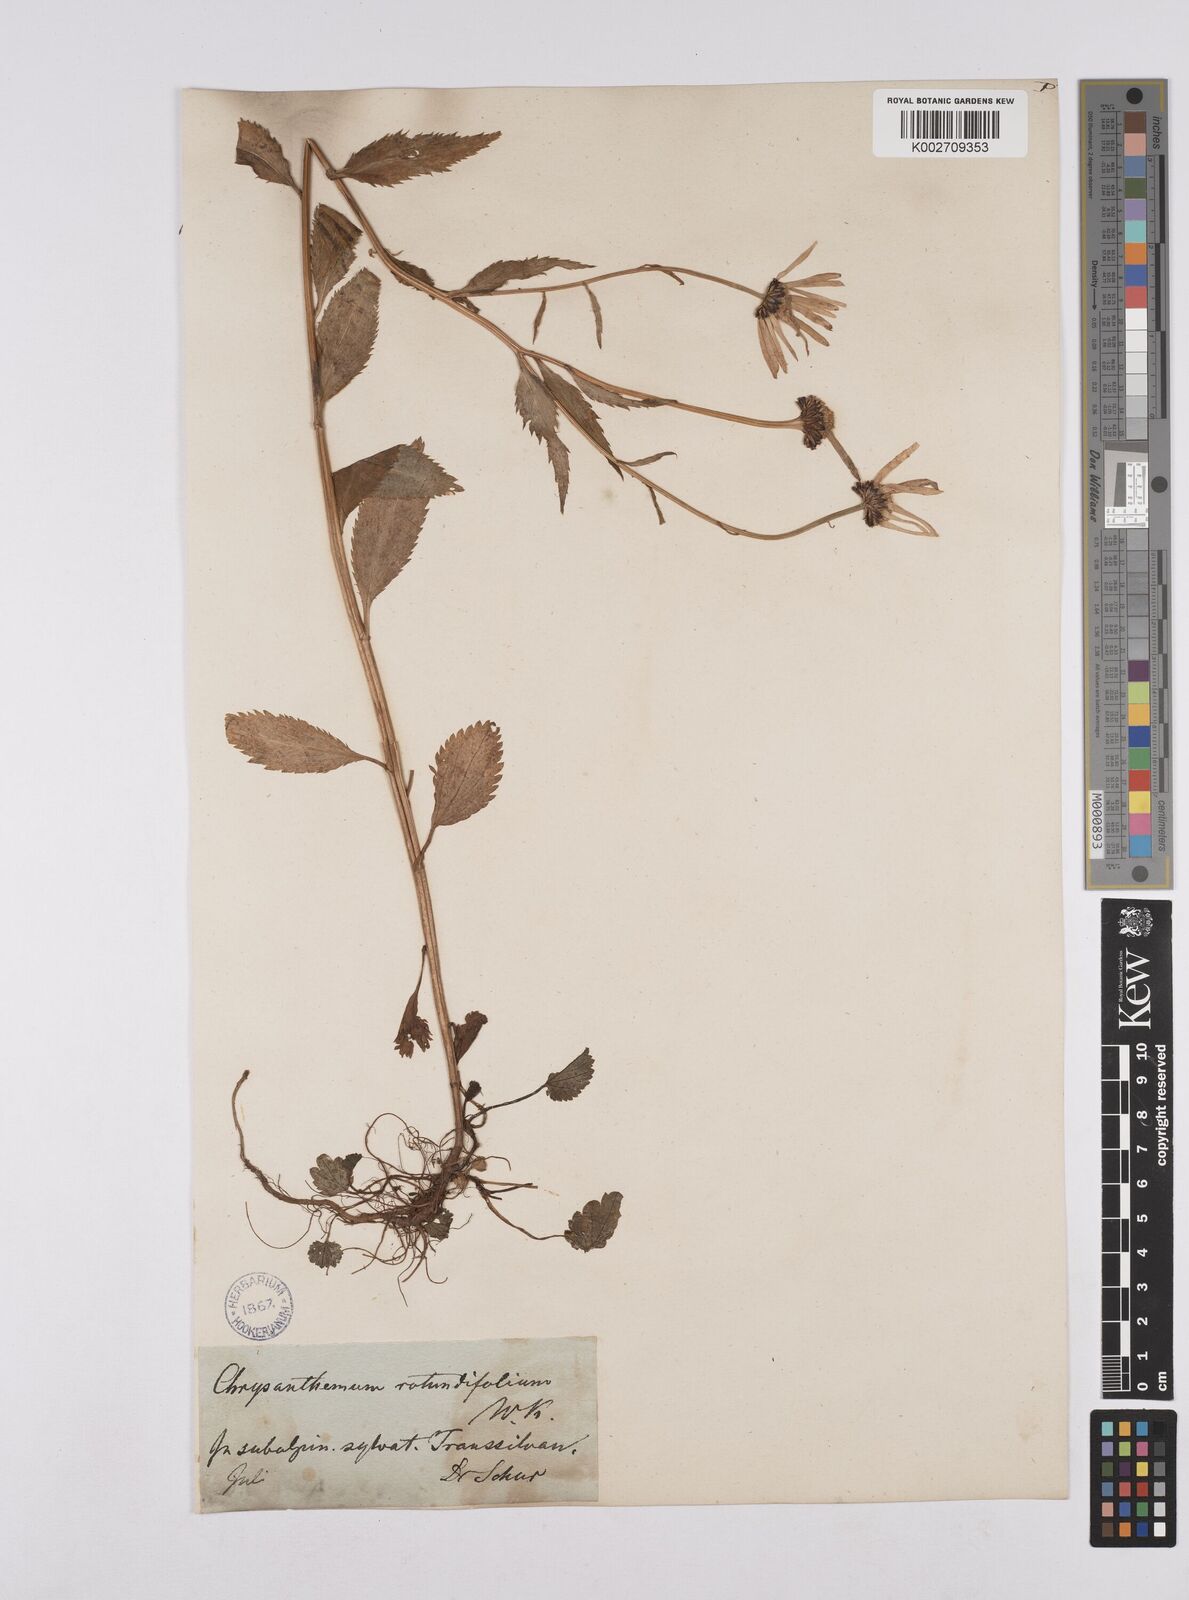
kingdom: Plantae
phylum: Tracheophyta
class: Magnoliopsida
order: Asterales
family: Asteraceae
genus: Leucanthemum
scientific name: Leucanthemum rotundifolium
